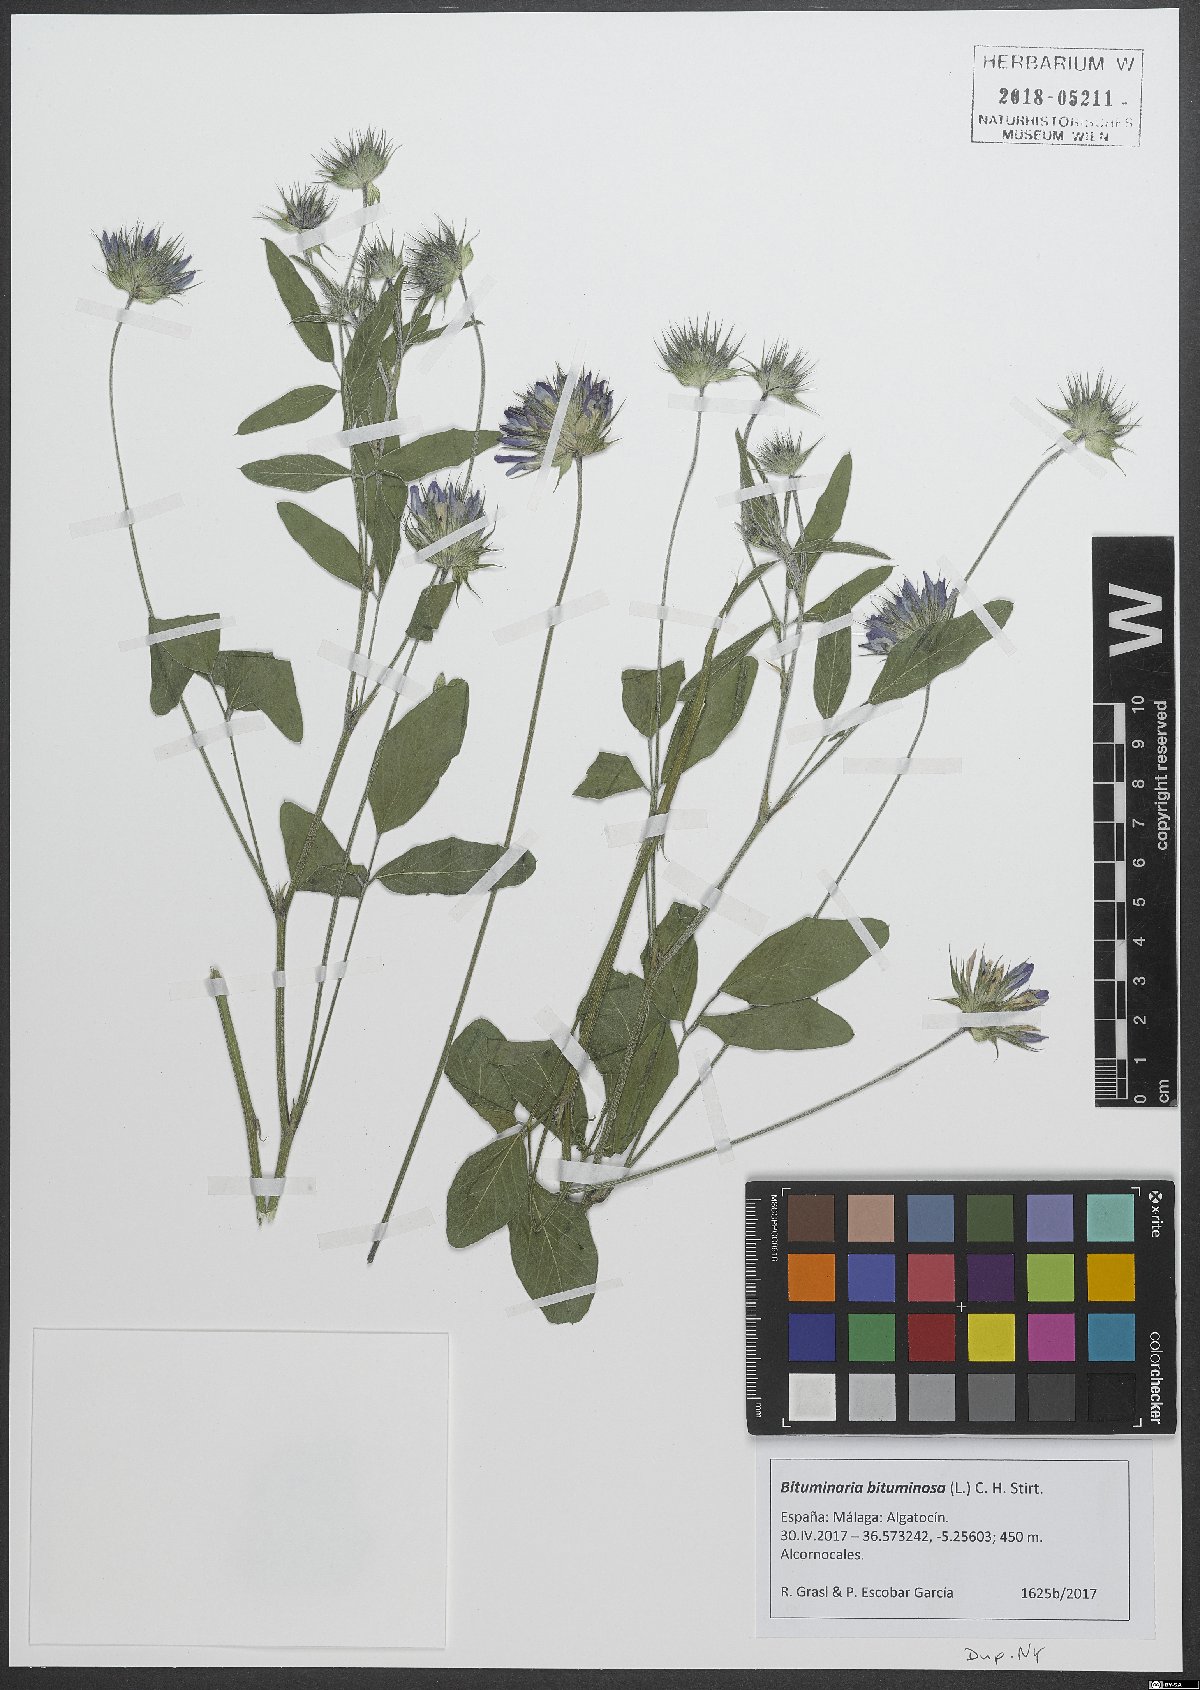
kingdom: Plantae
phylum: Tracheophyta
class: Magnoliopsida
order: Fabales
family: Fabaceae
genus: Bituminaria
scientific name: Bituminaria bituminosa
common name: Arabian pea
